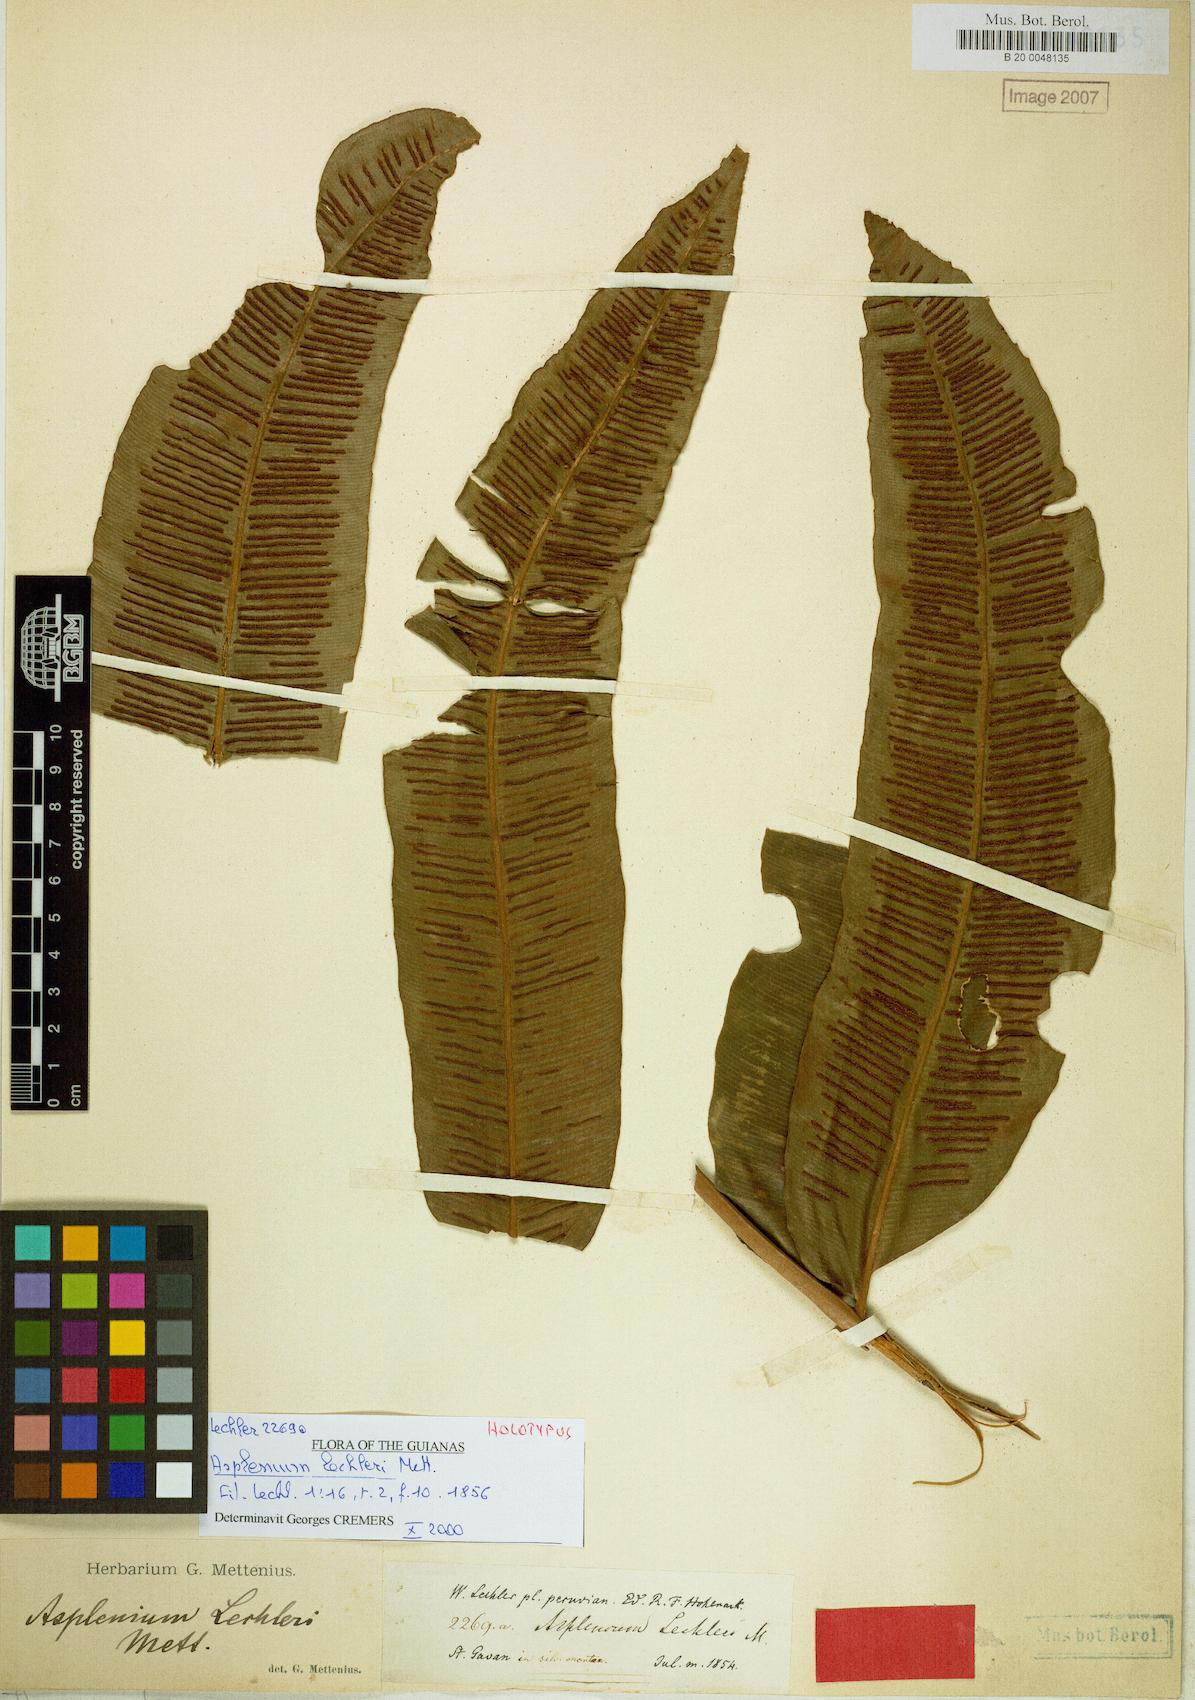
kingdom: Plantae
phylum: Tracheophyta
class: Polypodiopsida
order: Polypodiales
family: Desmophlebiaceae
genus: Desmophlebium
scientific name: Desmophlebium lechleri
